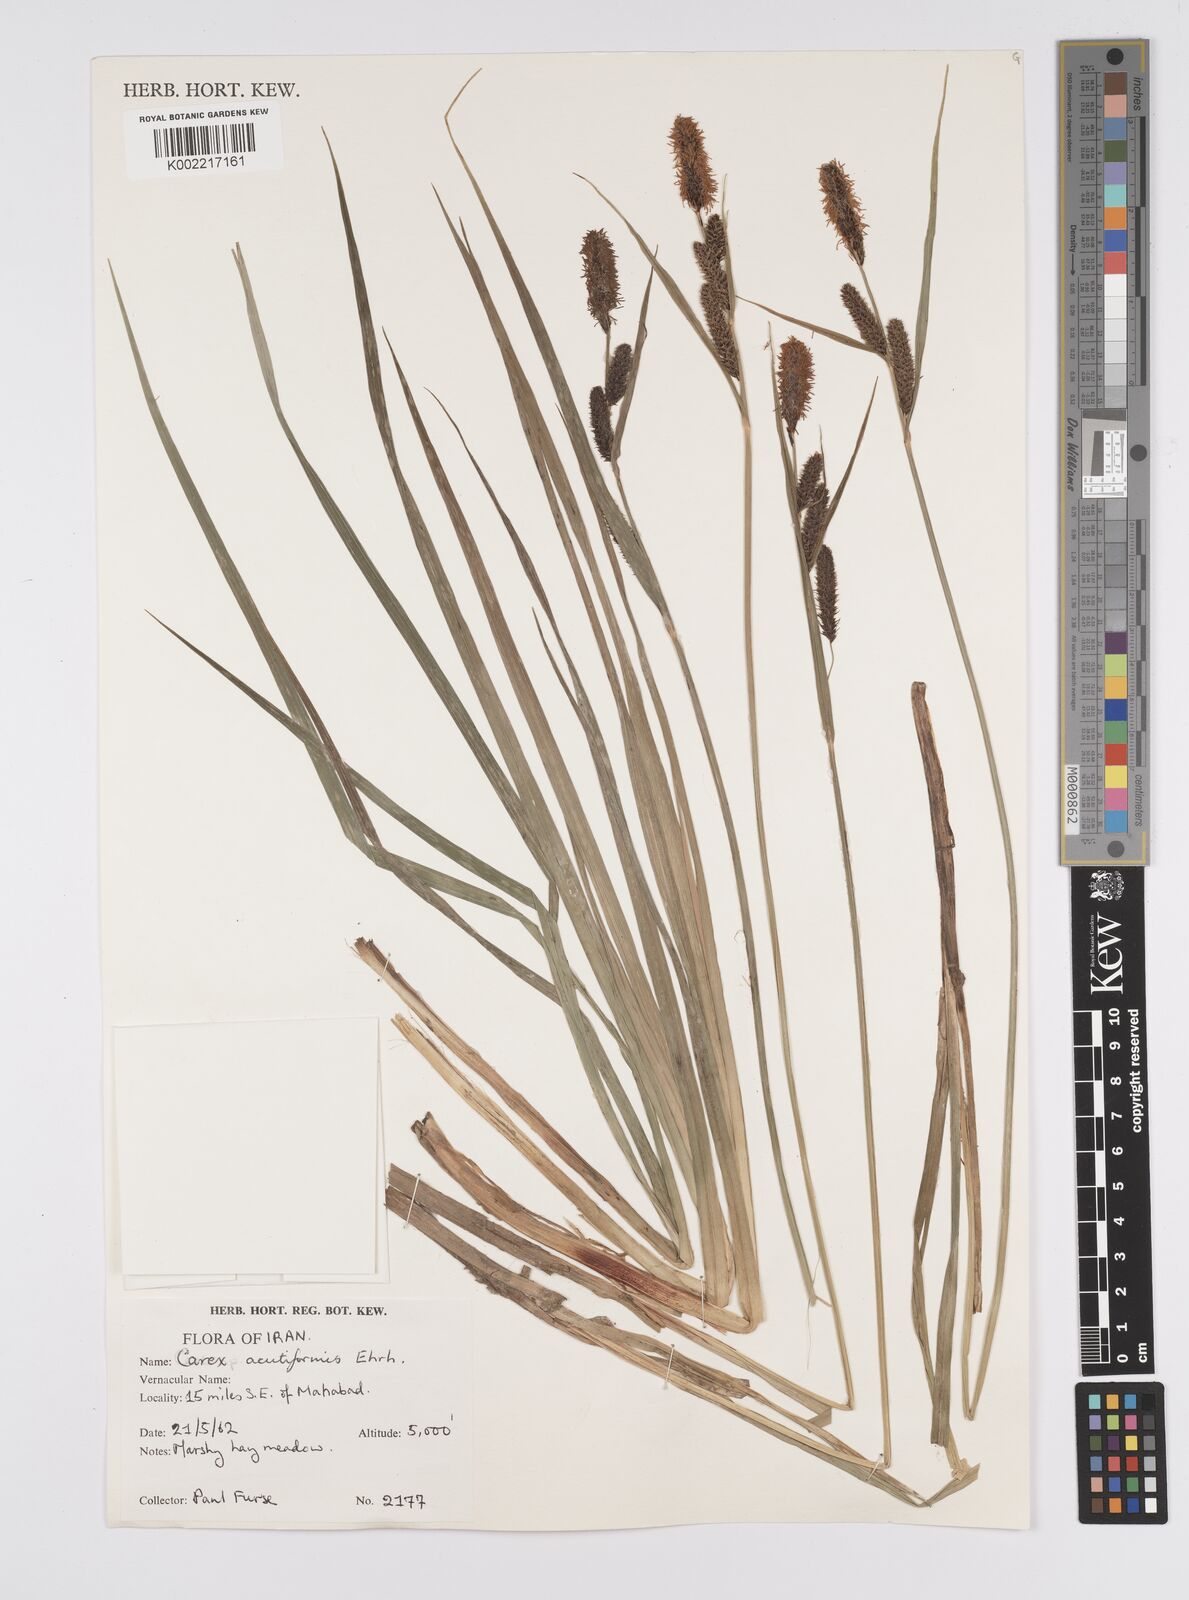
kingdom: Plantae
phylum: Tracheophyta
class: Liliopsida
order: Poales
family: Cyperaceae
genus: Carex
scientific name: Carex acutiformis
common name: Lesser pond-sedge
